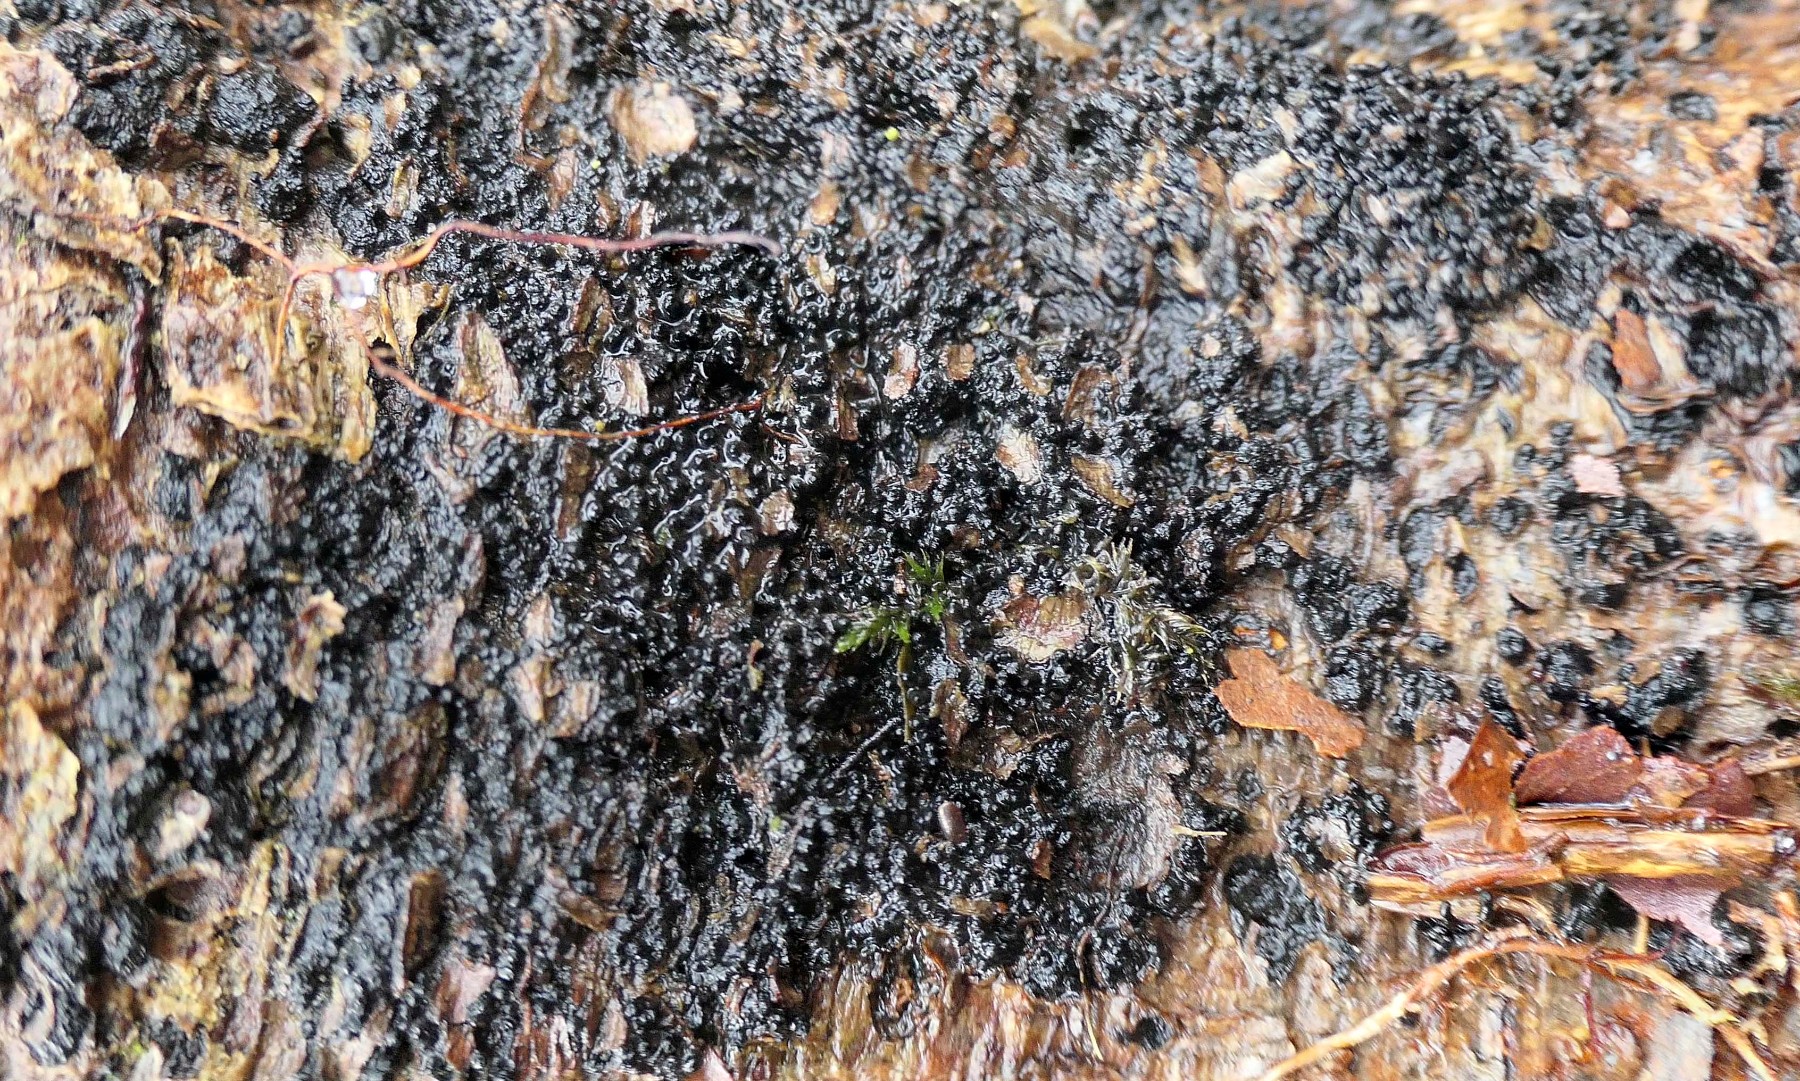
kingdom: Fungi
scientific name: Fungi
